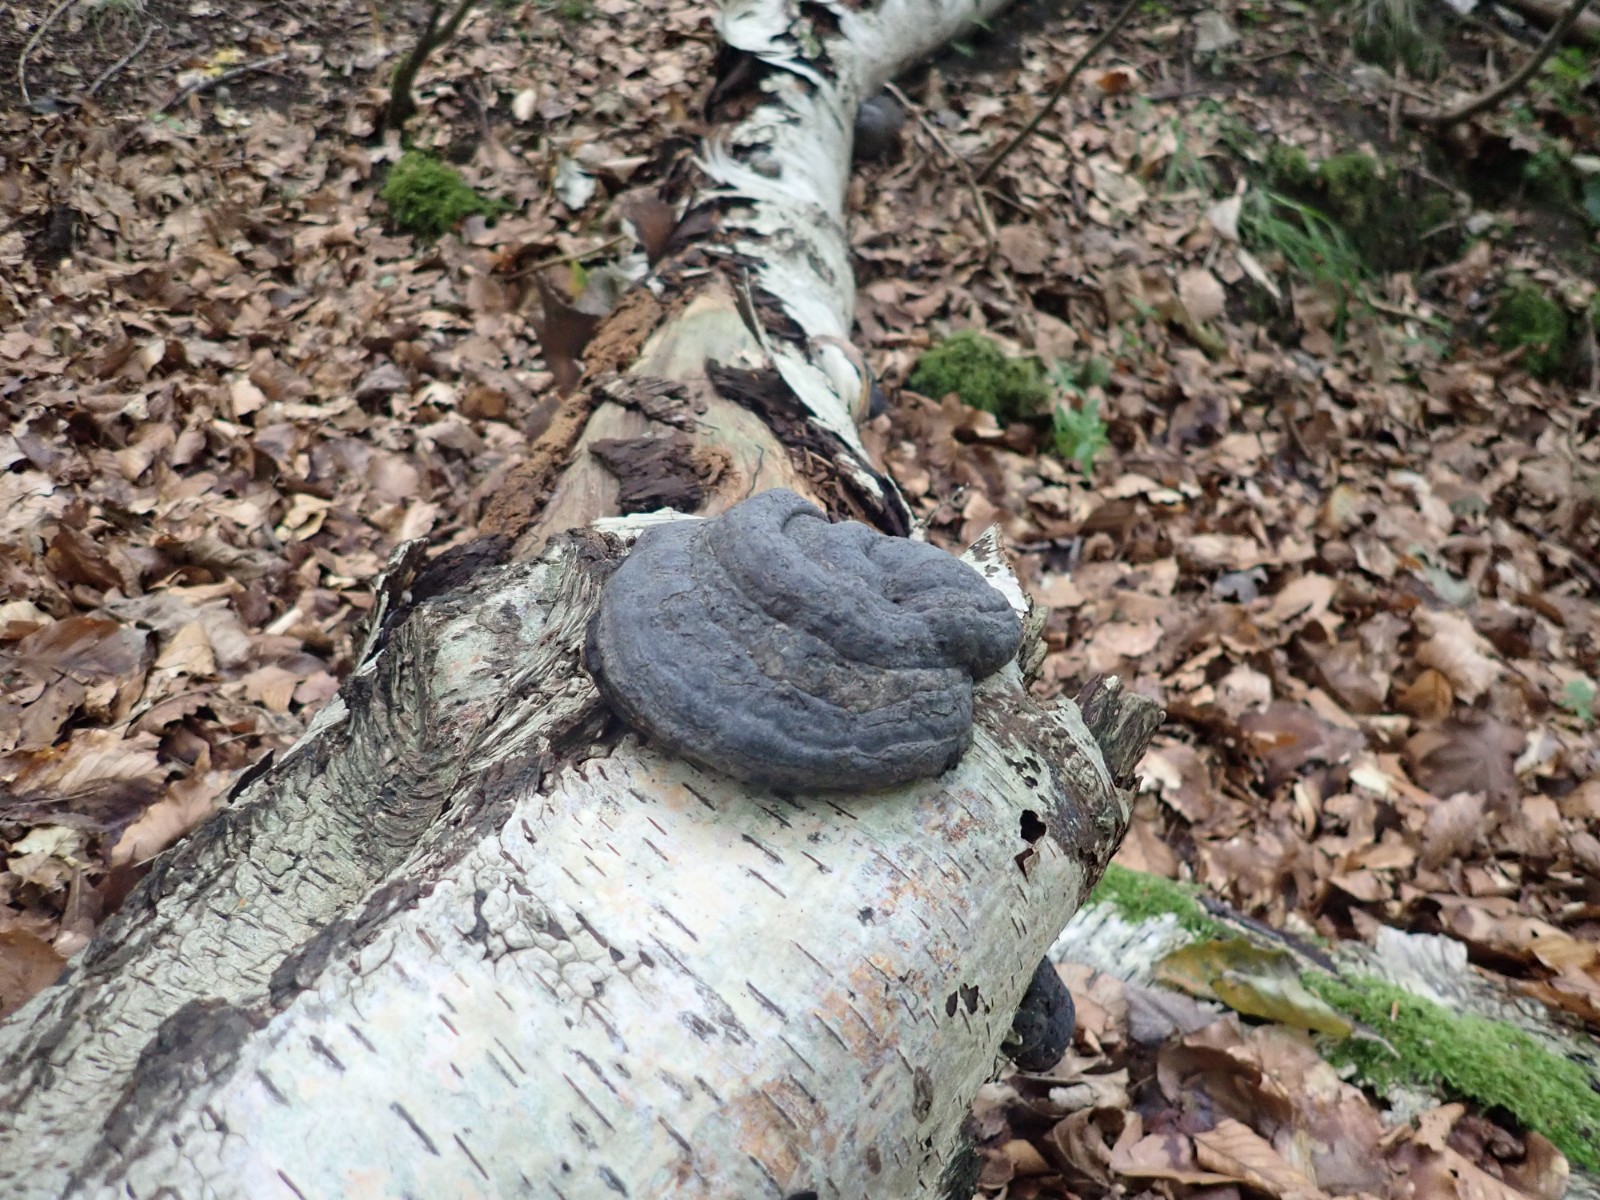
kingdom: Fungi
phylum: Basidiomycota
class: Agaricomycetes
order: Polyporales
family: Polyporaceae
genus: Fomes
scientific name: Fomes fomentarius
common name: tøndersvamp
